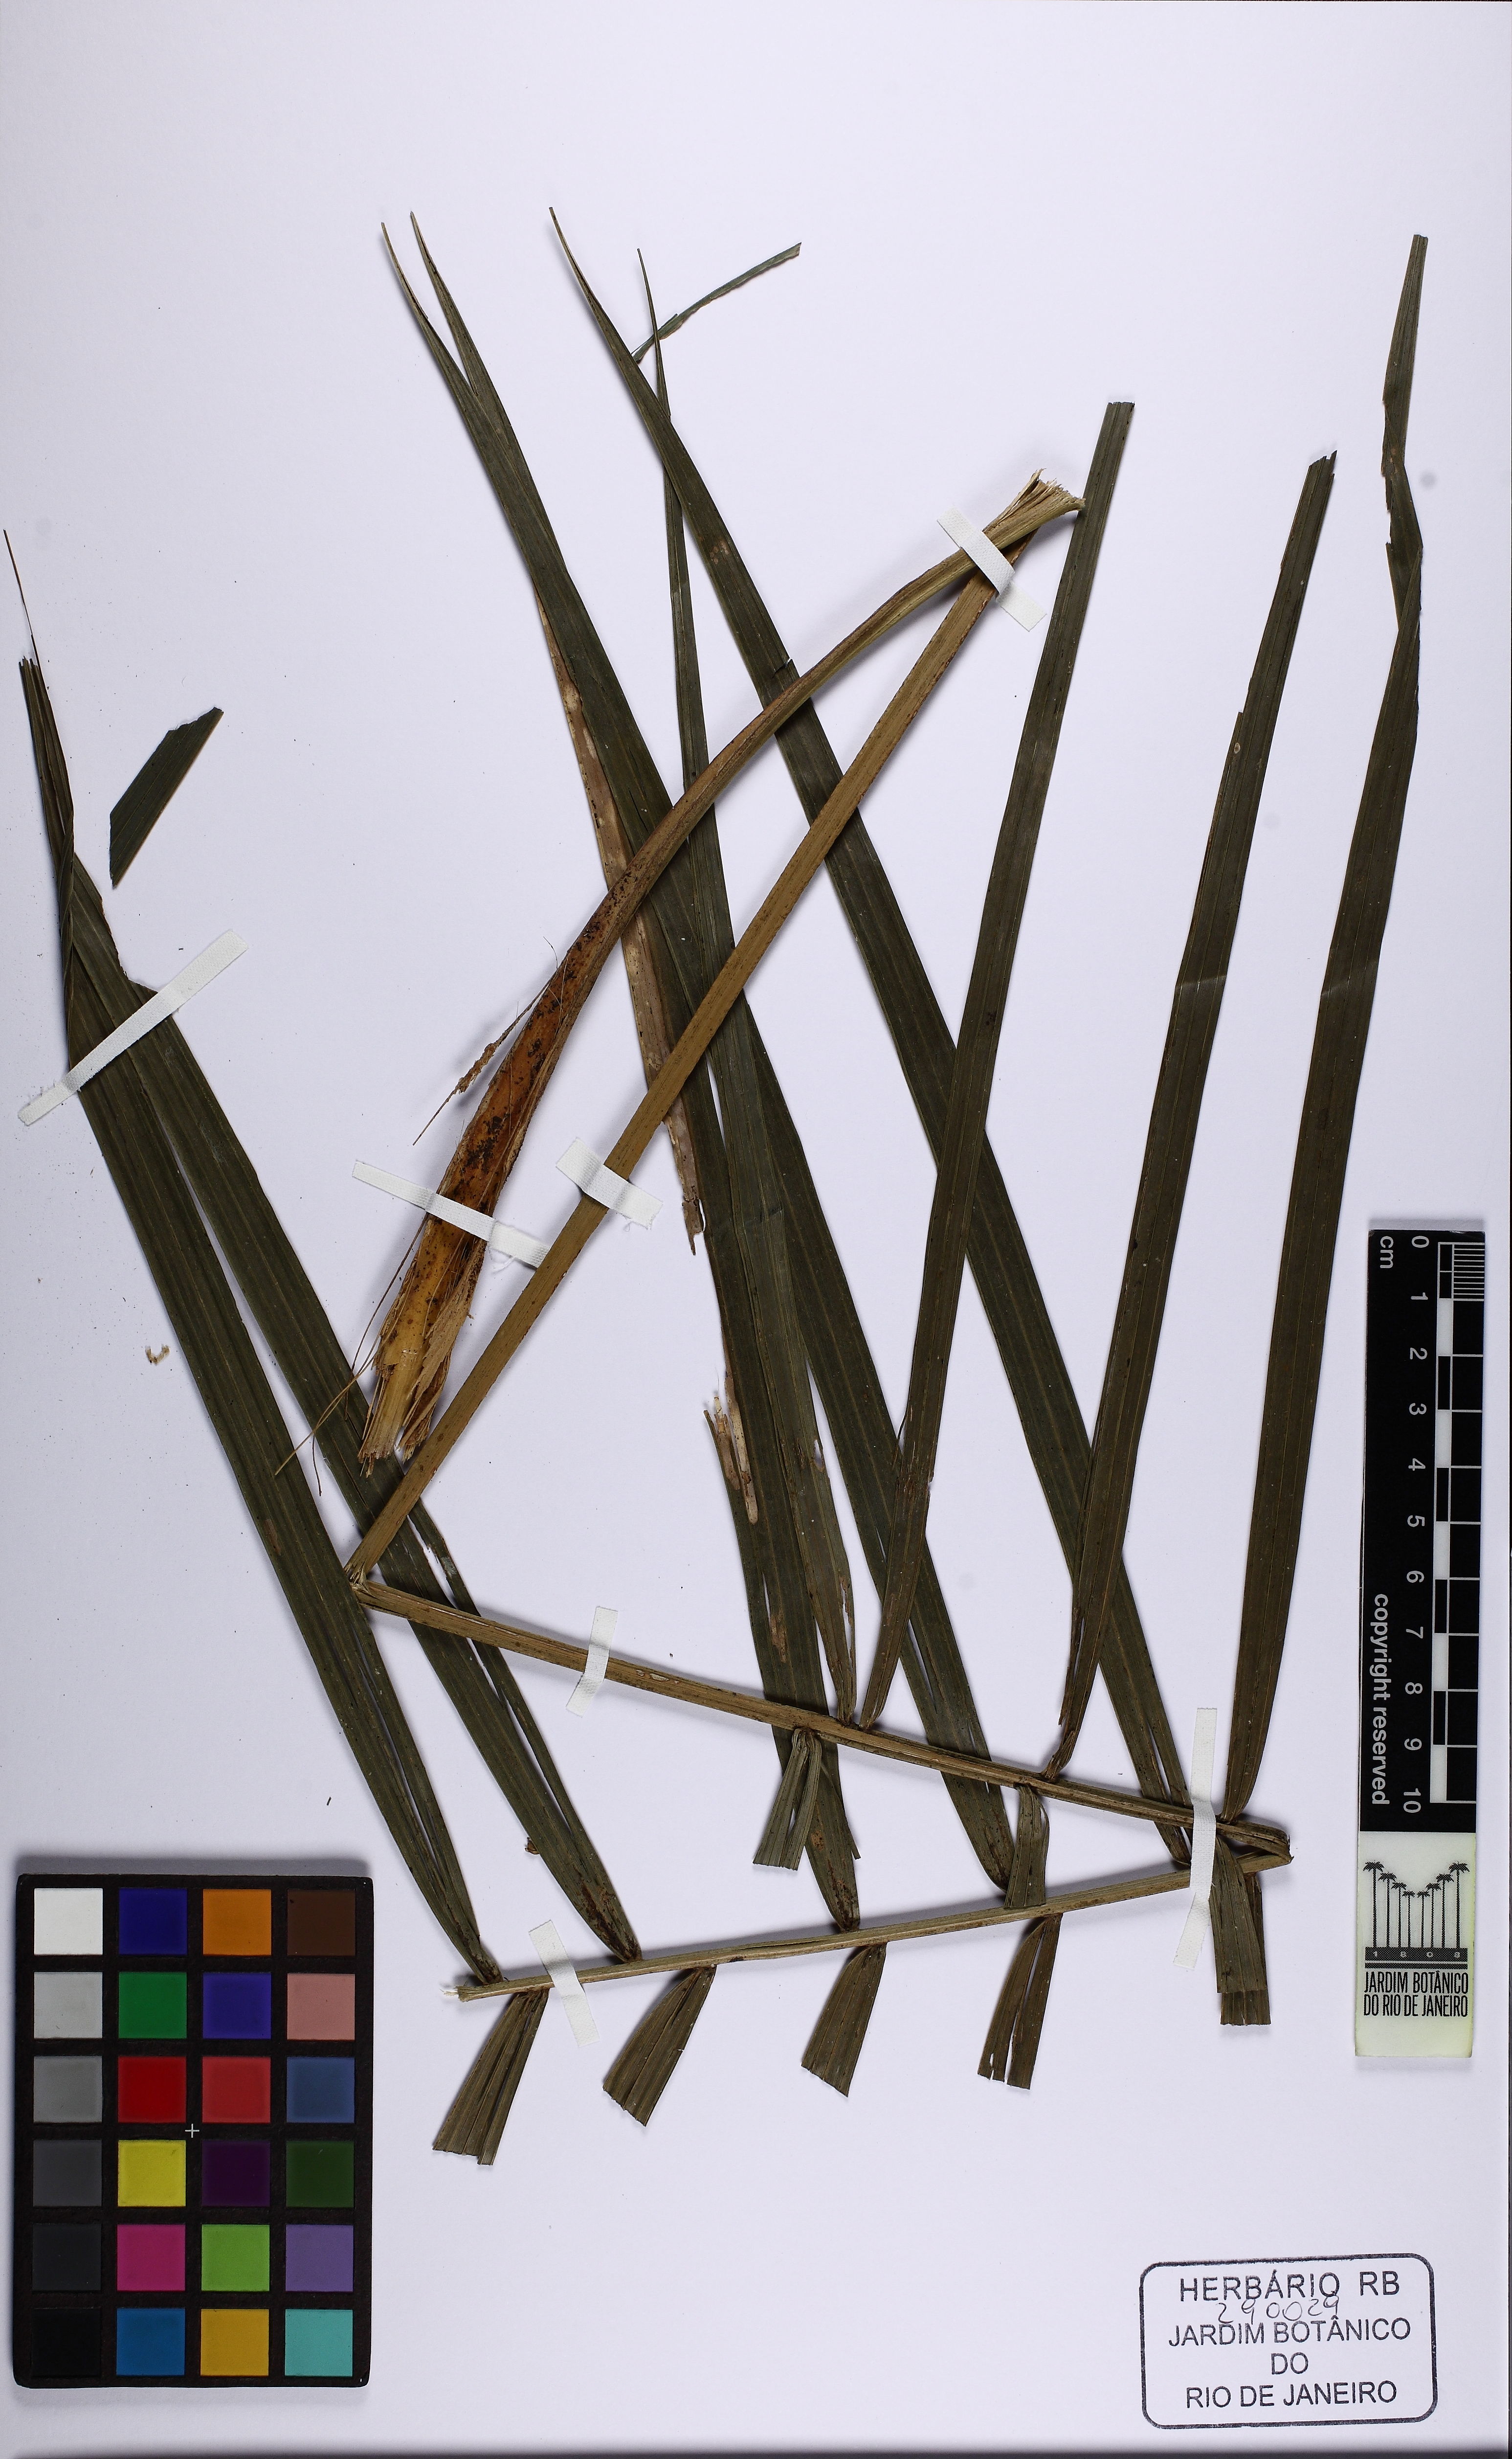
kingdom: Plantae
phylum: Tracheophyta
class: Liliopsida
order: Arecales
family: Arecaceae
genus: Geonoma
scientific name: Geonoma schottiana
